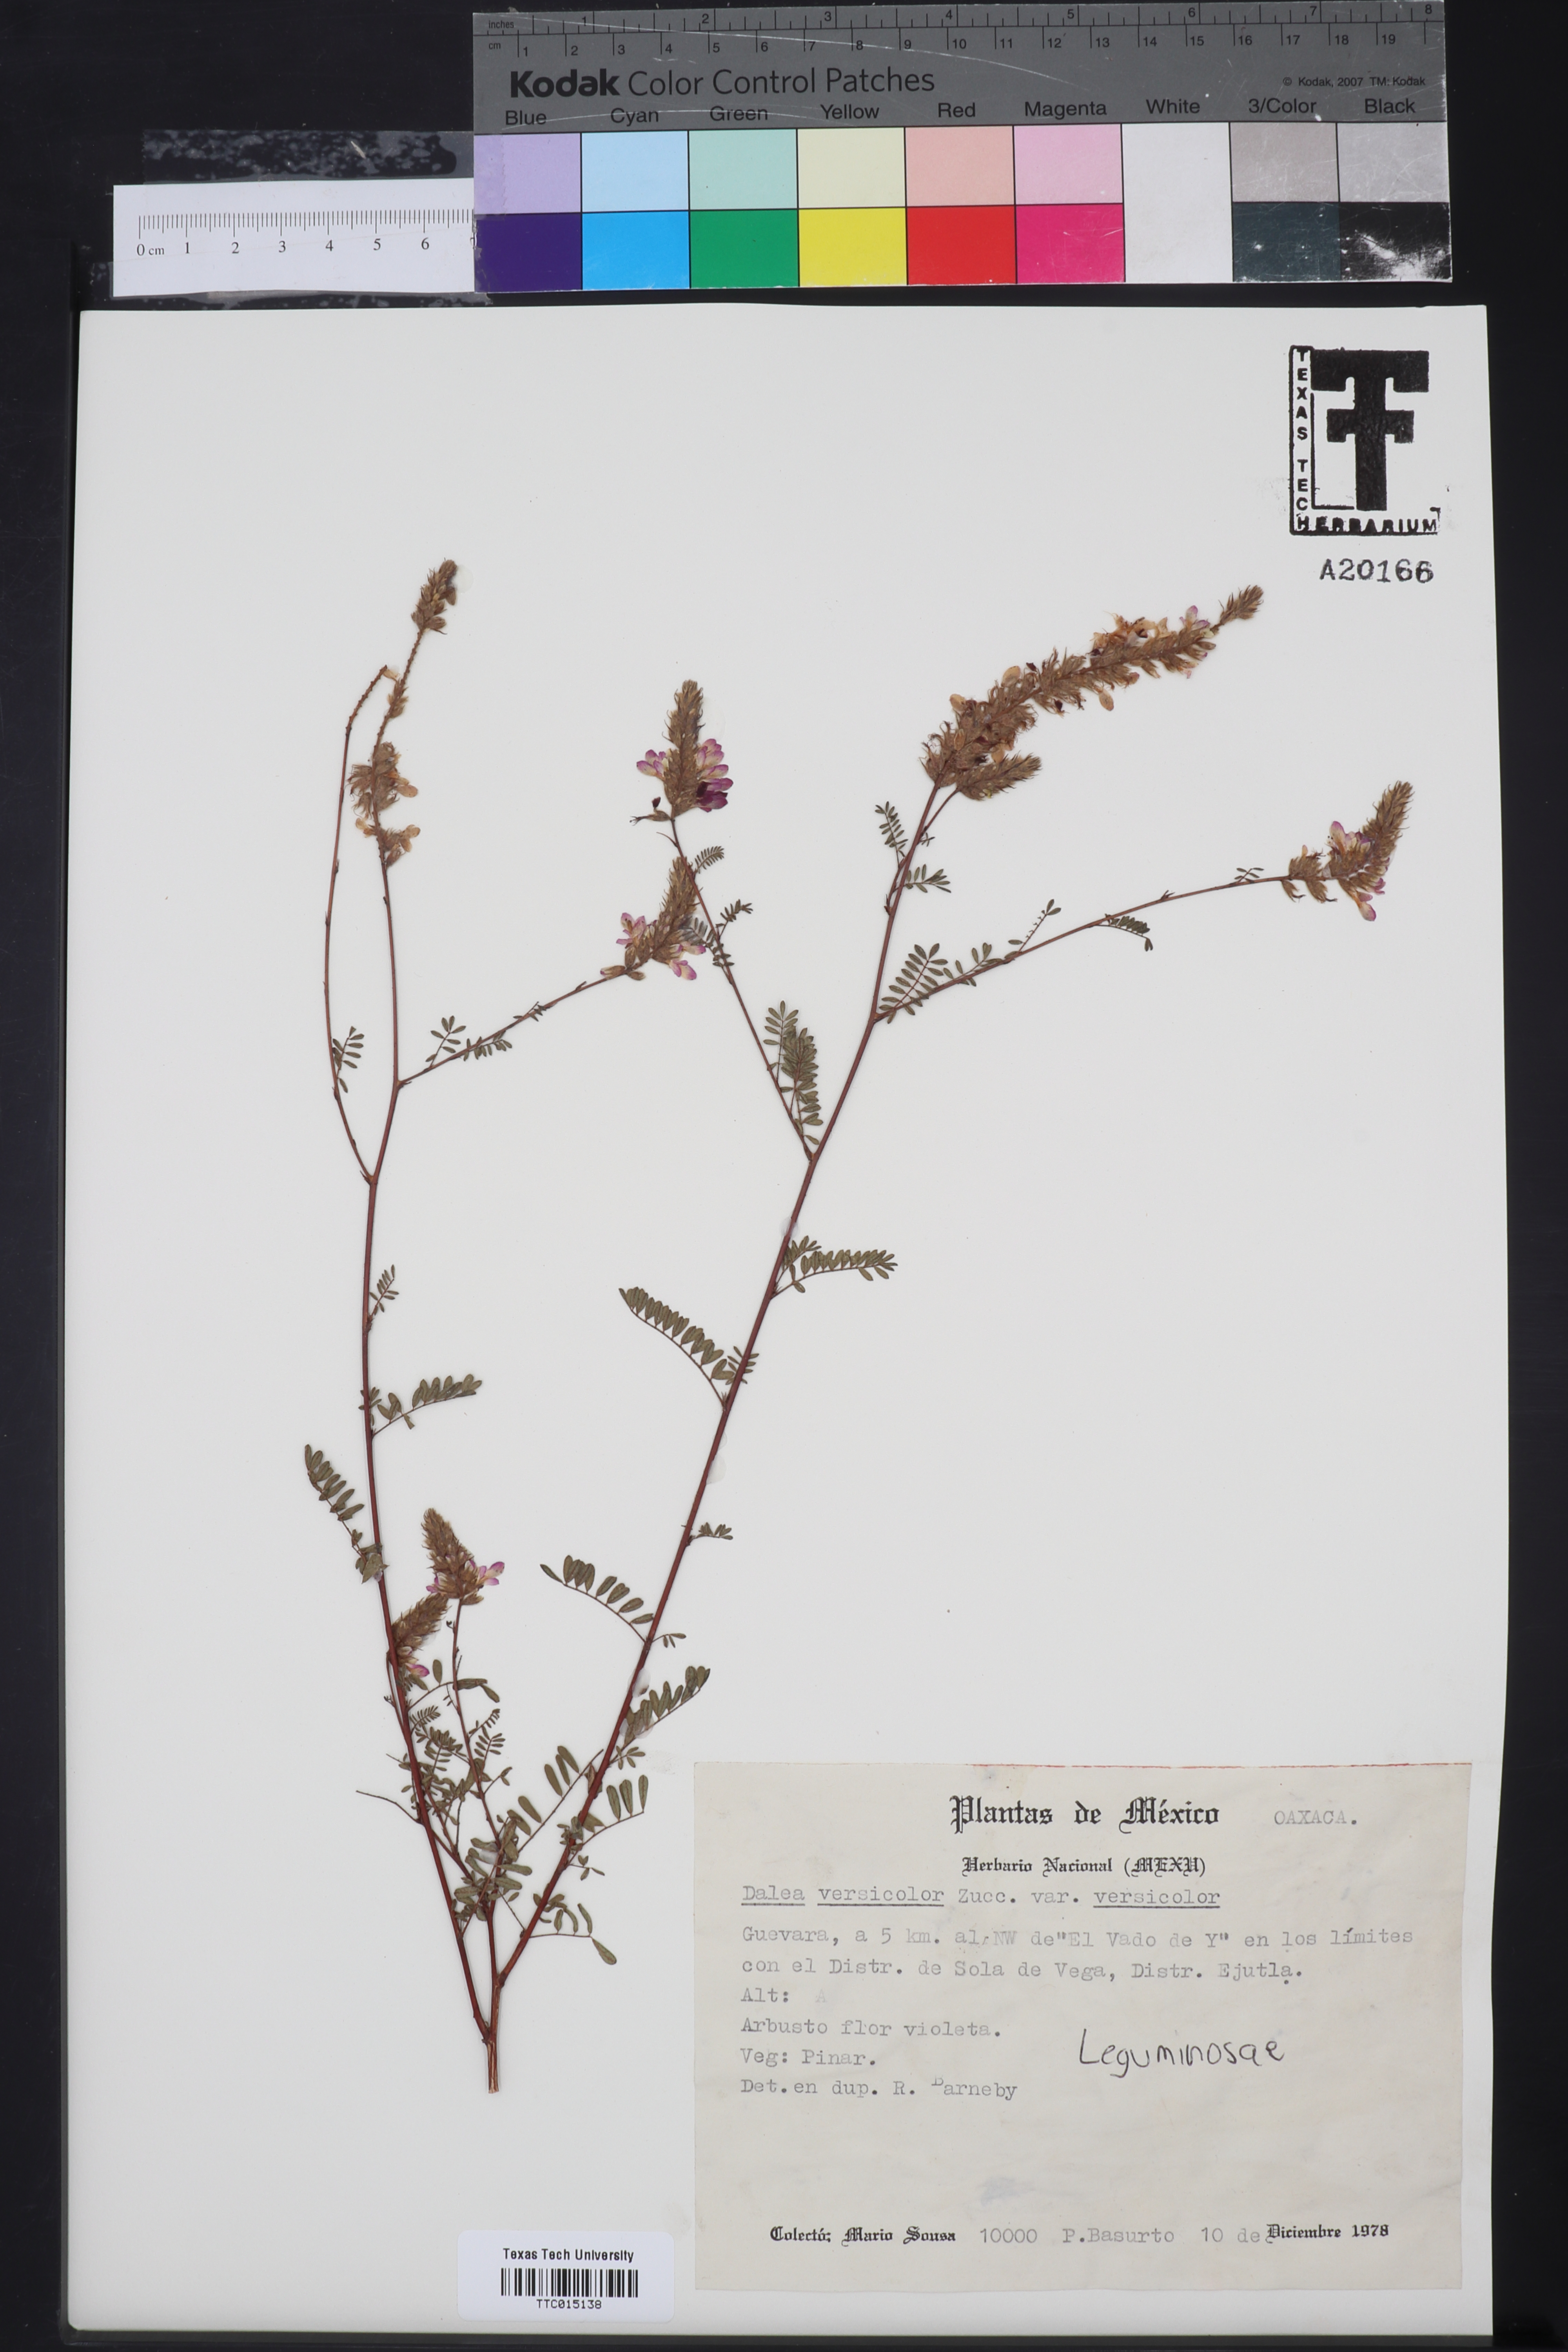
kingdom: Plantae
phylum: Tracheophyta
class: Magnoliopsida
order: Fabales
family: Fabaceae
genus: Dalea
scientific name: Dalea versicolor
